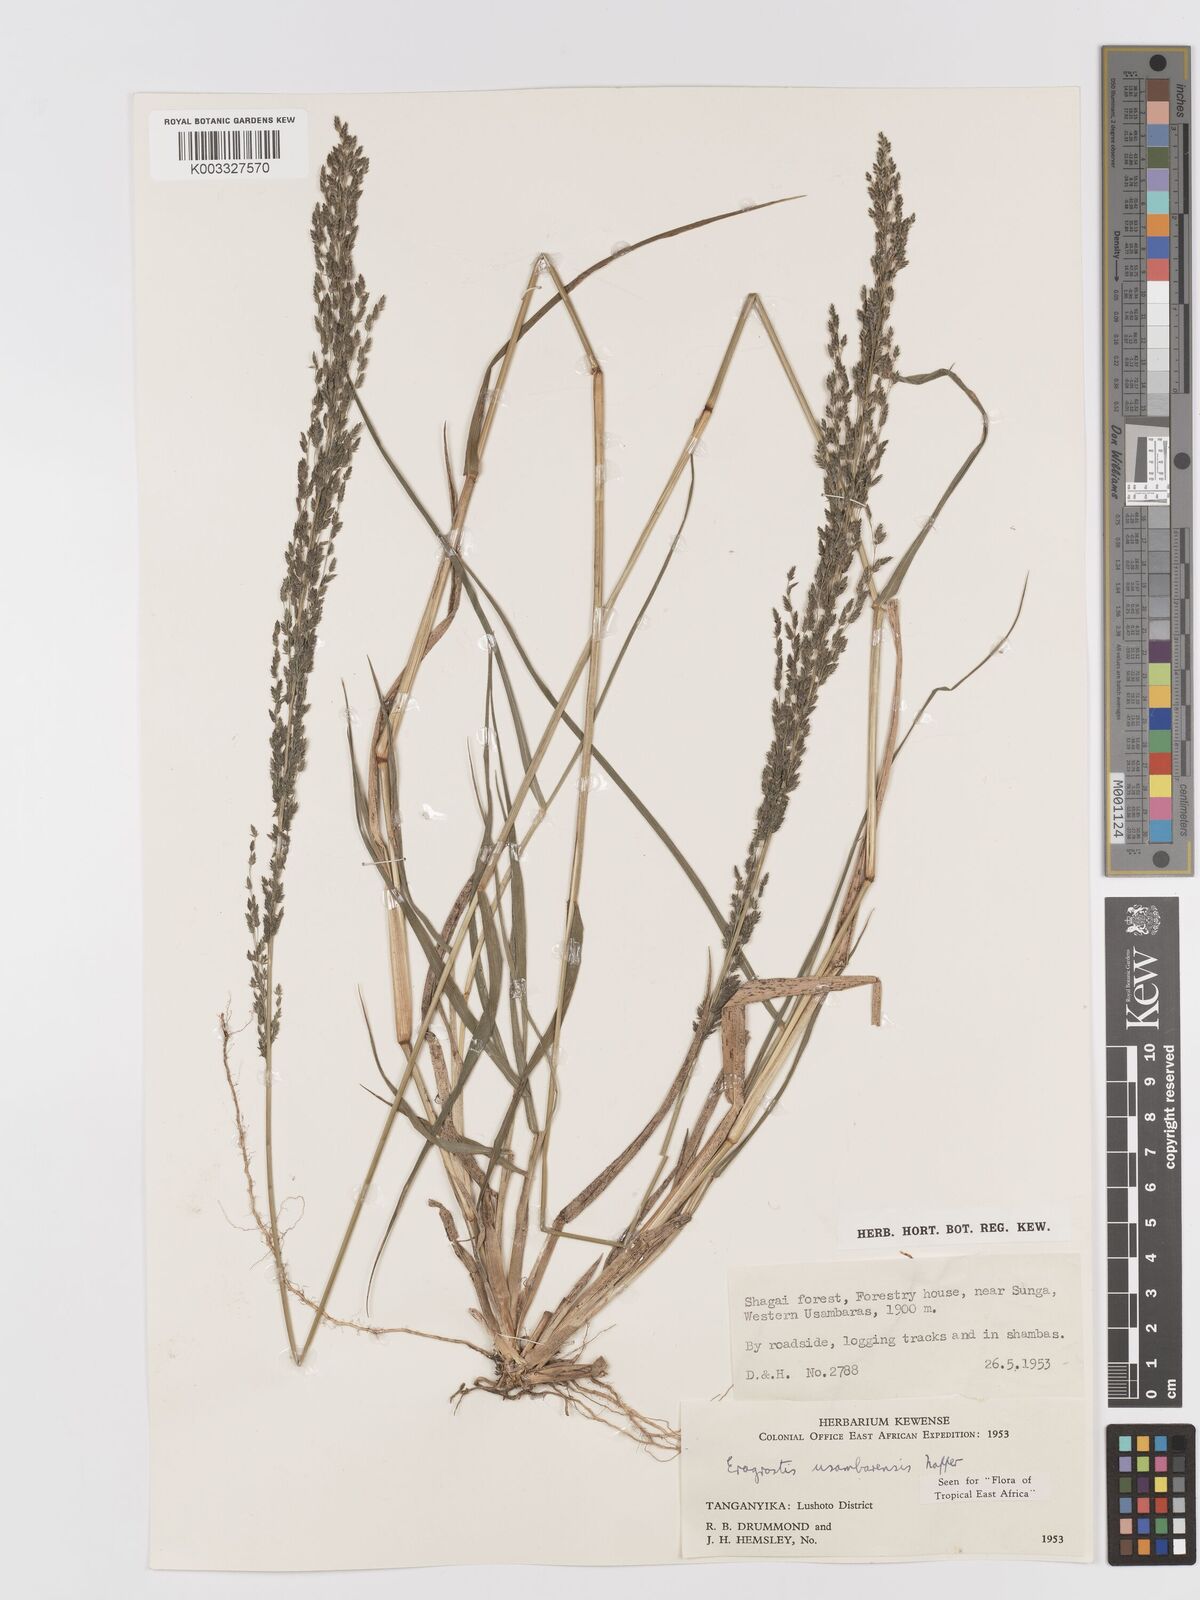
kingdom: Plantae
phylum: Tracheophyta
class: Liliopsida
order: Poales
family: Poaceae
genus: Eragrostis
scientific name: Eragrostis usambarensis
